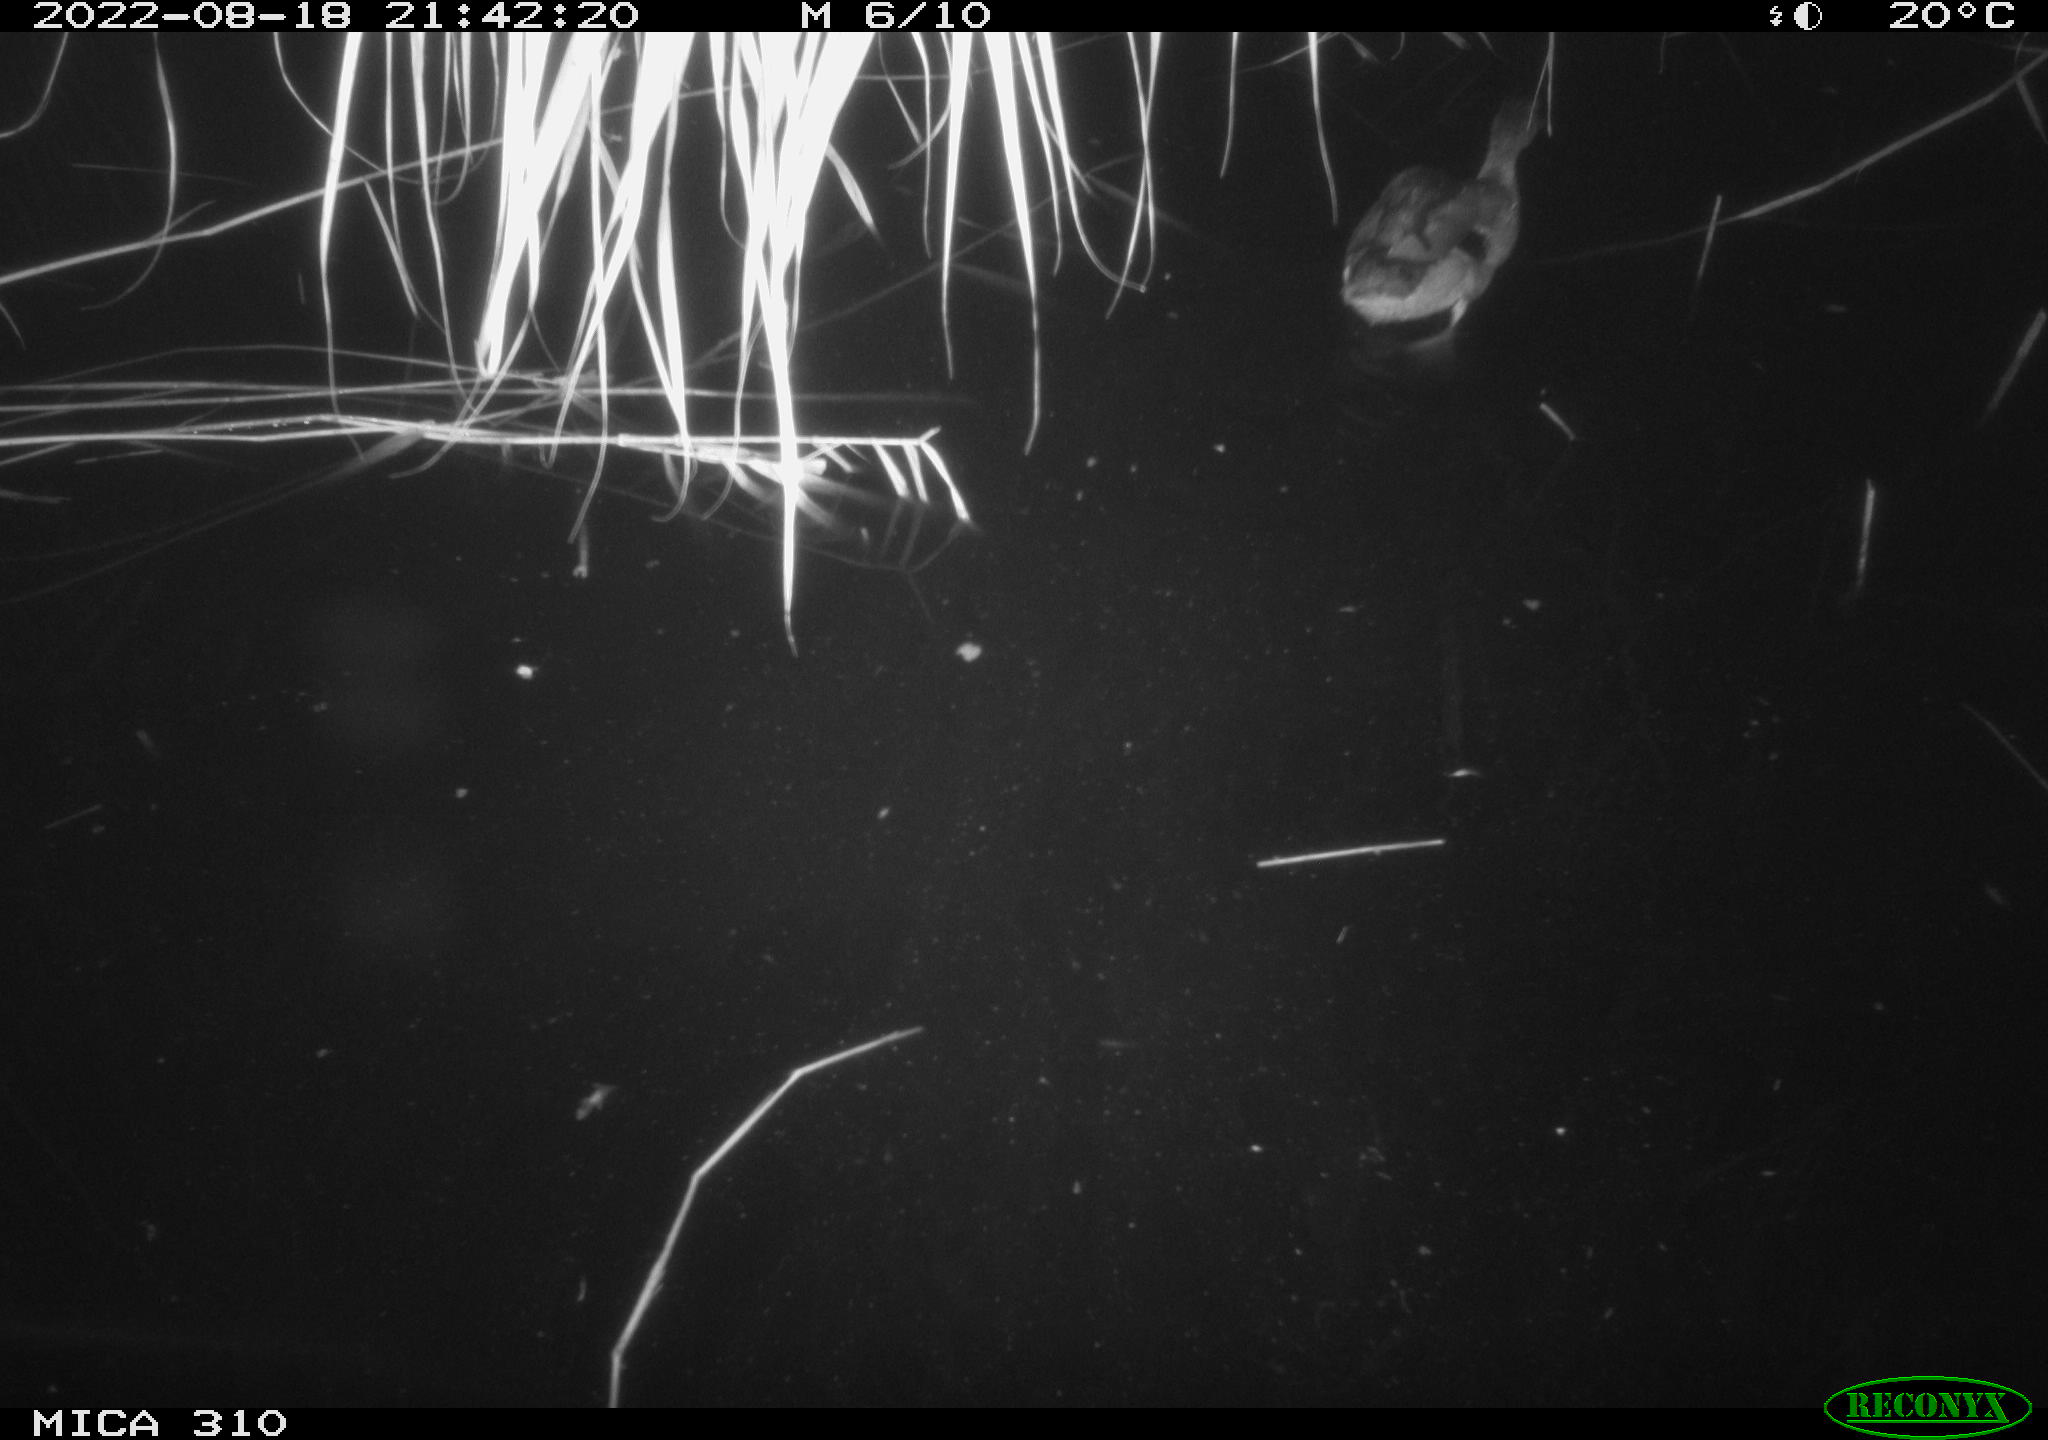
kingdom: Animalia
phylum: Chordata
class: Aves
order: Anseriformes
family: Anatidae
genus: Anas
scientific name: Anas platyrhynchos
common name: Mallard
